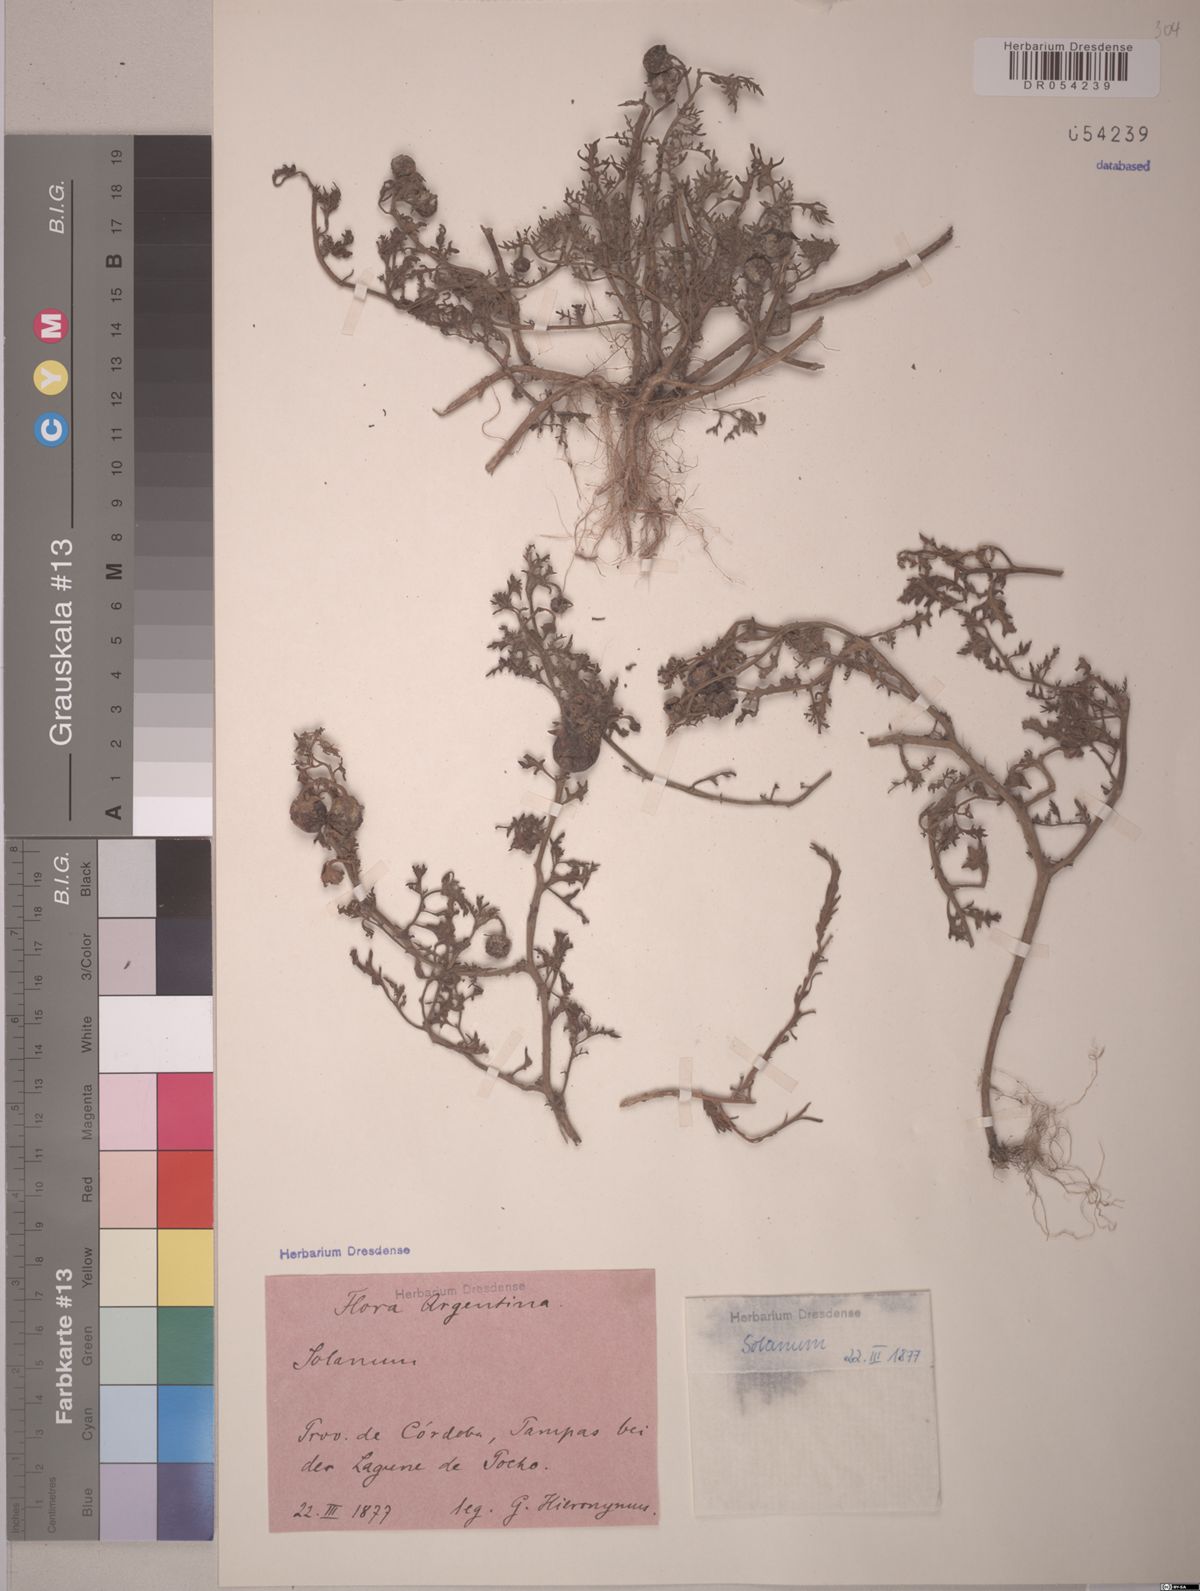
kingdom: Plantae
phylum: Tracheophyta
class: Magnoliopsida
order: Solanales
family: Solanaceae
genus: Solanum
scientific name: Solanum triflorum
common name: Small nightshade
